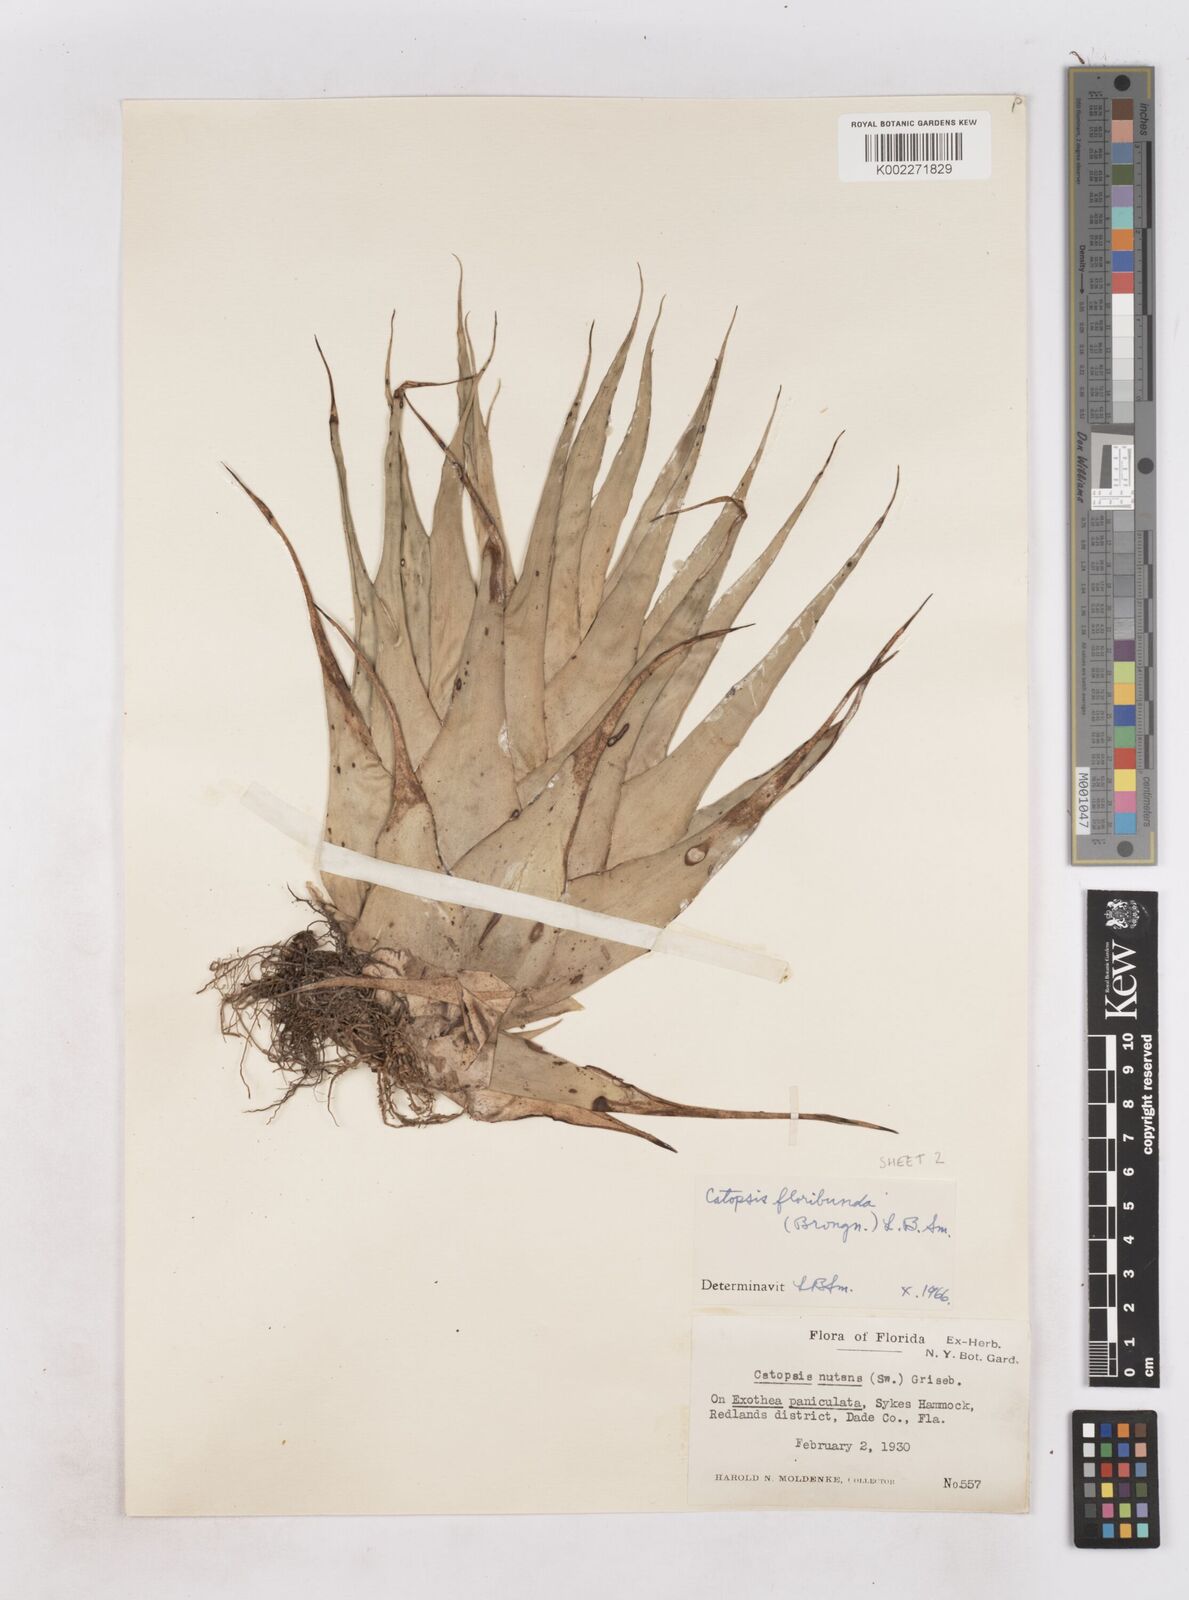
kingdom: Plantae
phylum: Tracheophyta
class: Liliopsida
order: Poales
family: Bromeliaceae
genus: Catopsis
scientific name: Catopsis floribunda
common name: Florida strap airplant
